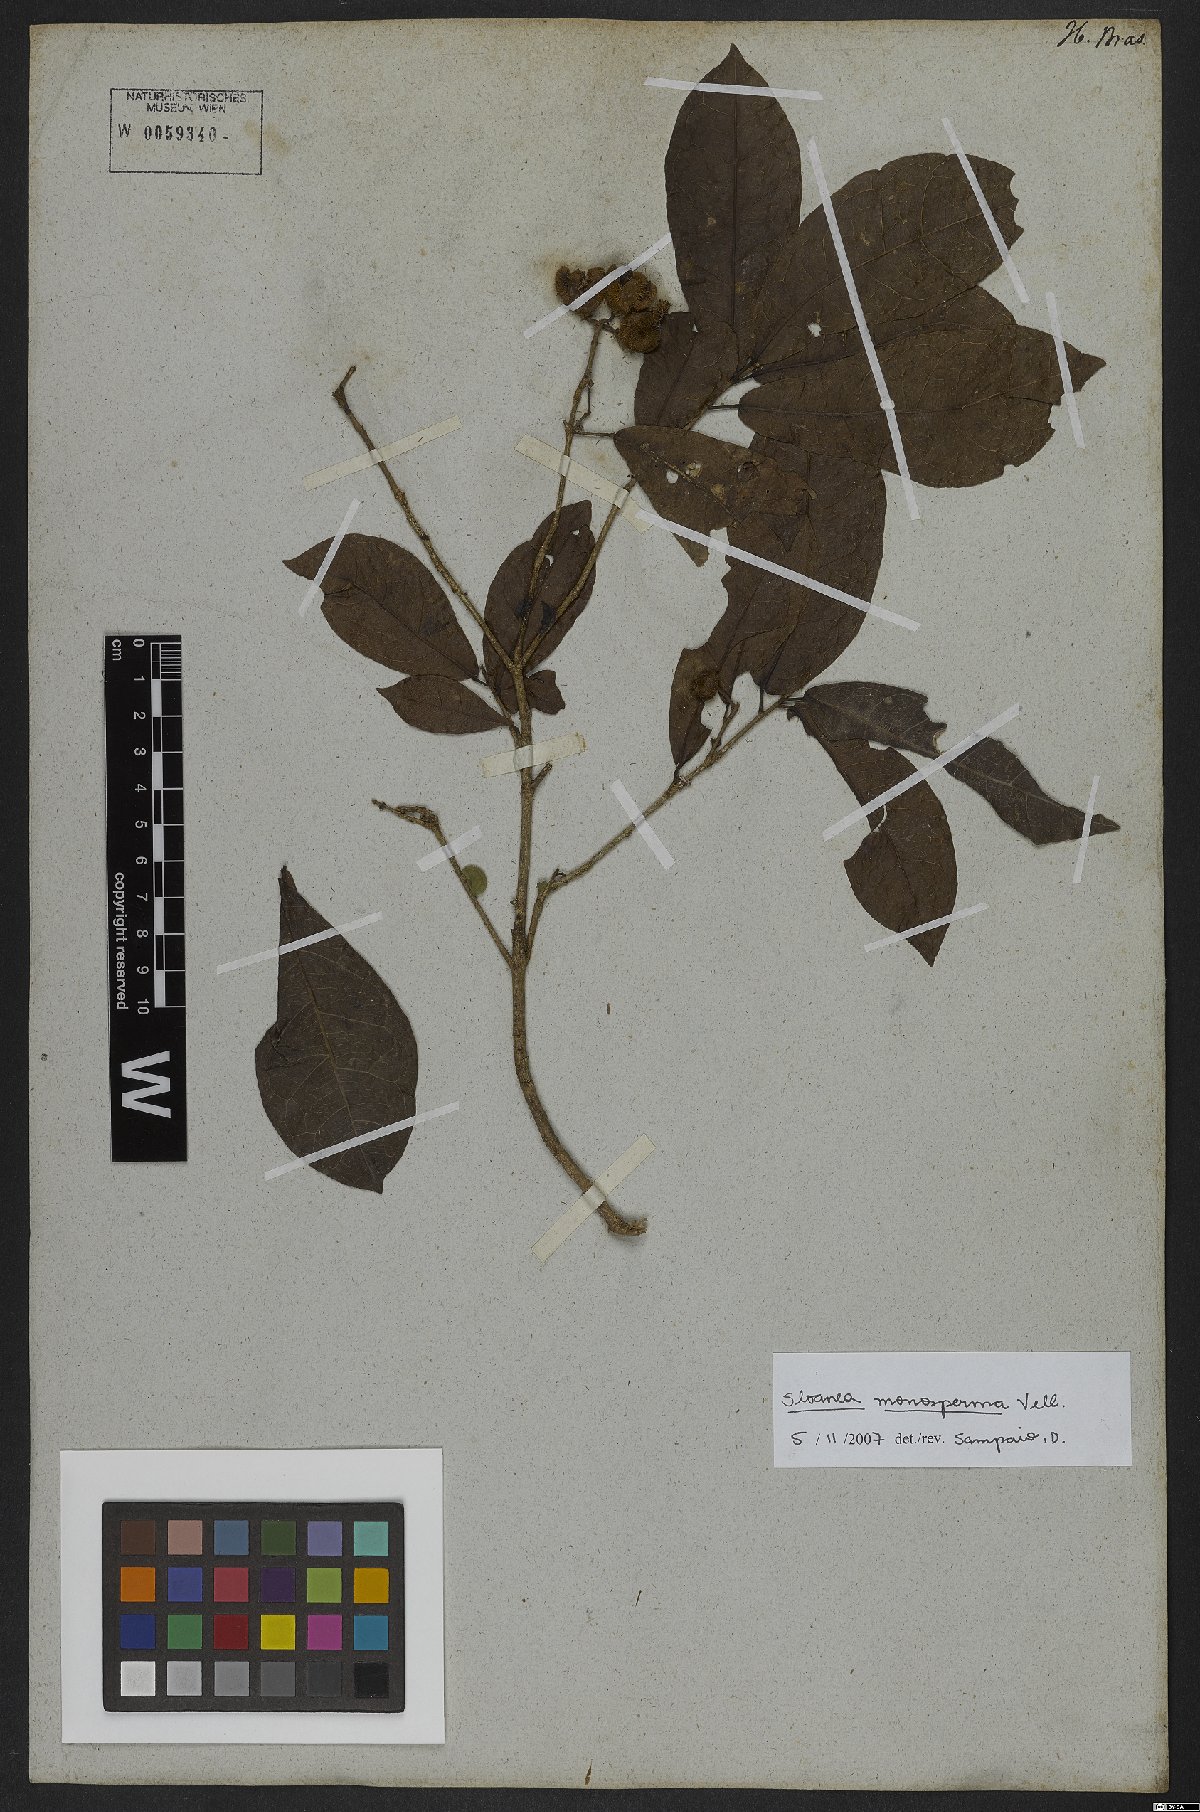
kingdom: Plantae
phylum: Tracheophyta
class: Magnoliopsida
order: Oxalidales
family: Elaeocarpaceae
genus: Sloanea
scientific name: Sloanea hirsuta
